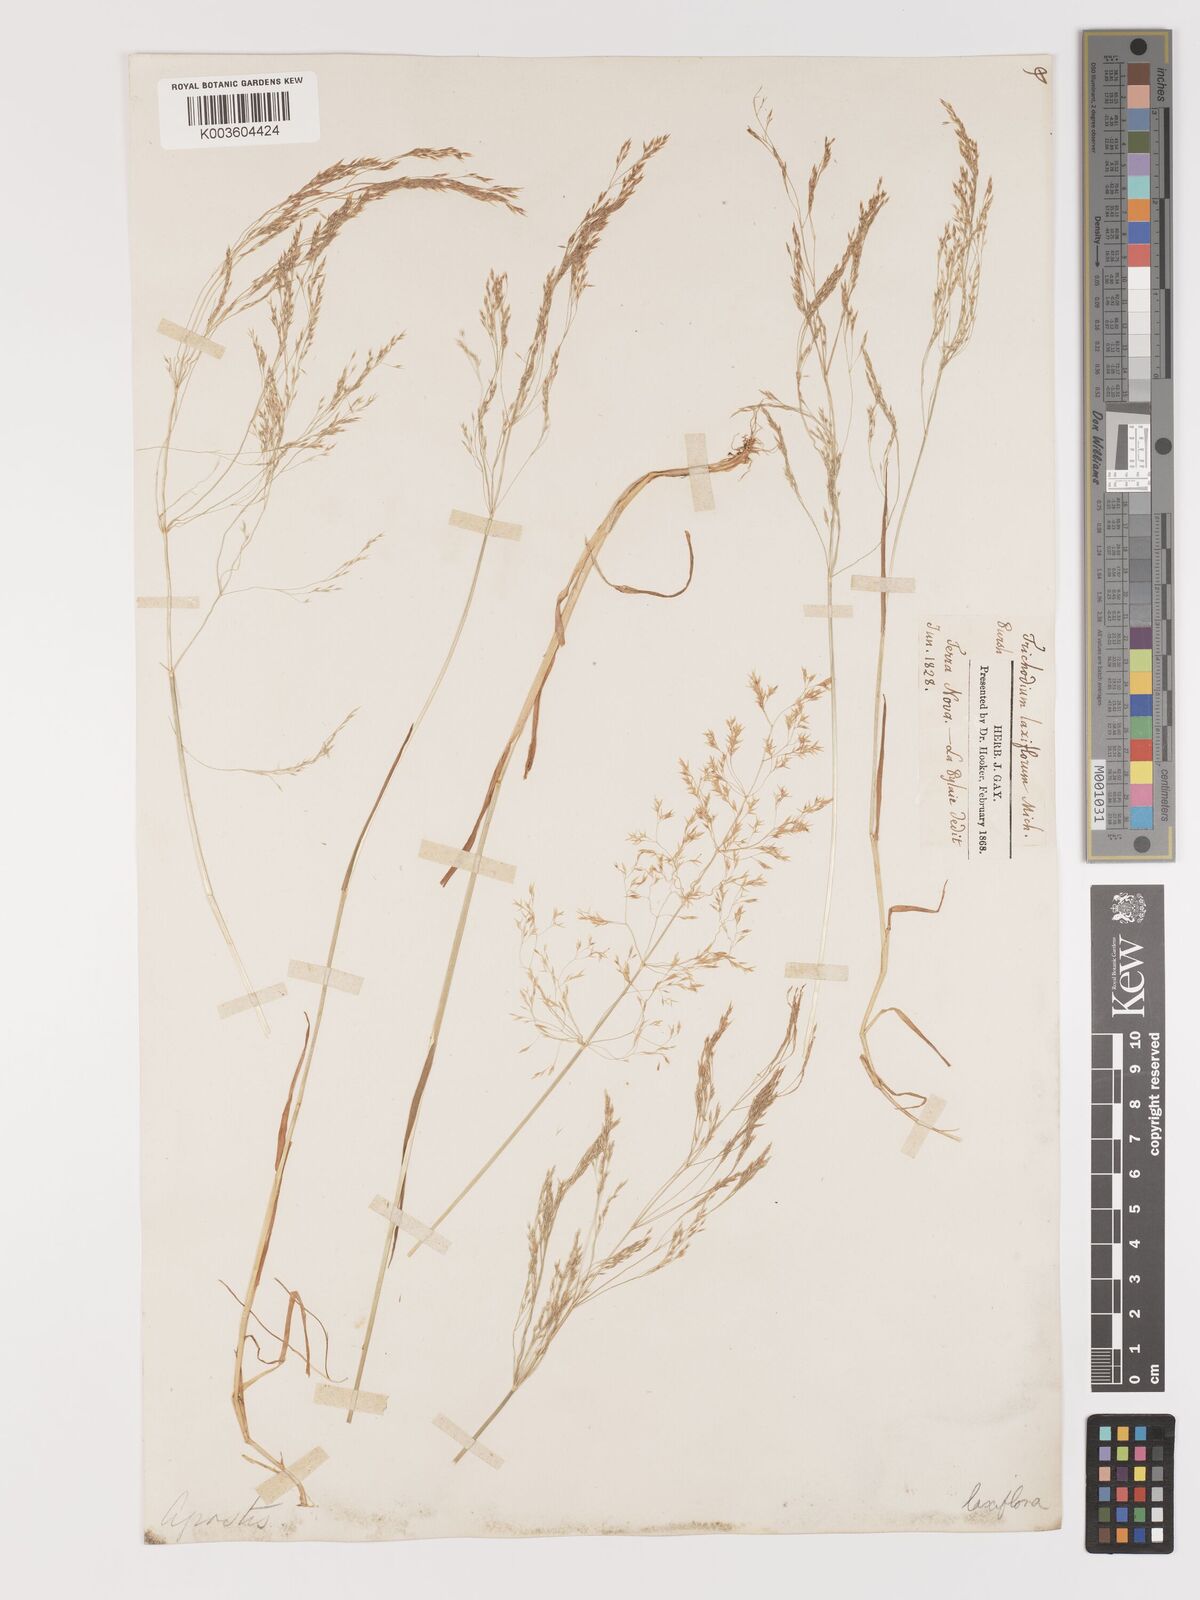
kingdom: Plantae
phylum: Tracheophyta
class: Liliopsida
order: Poales
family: Poaceae
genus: Agrostis
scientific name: Agrostis hyemalis
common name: Small bent
